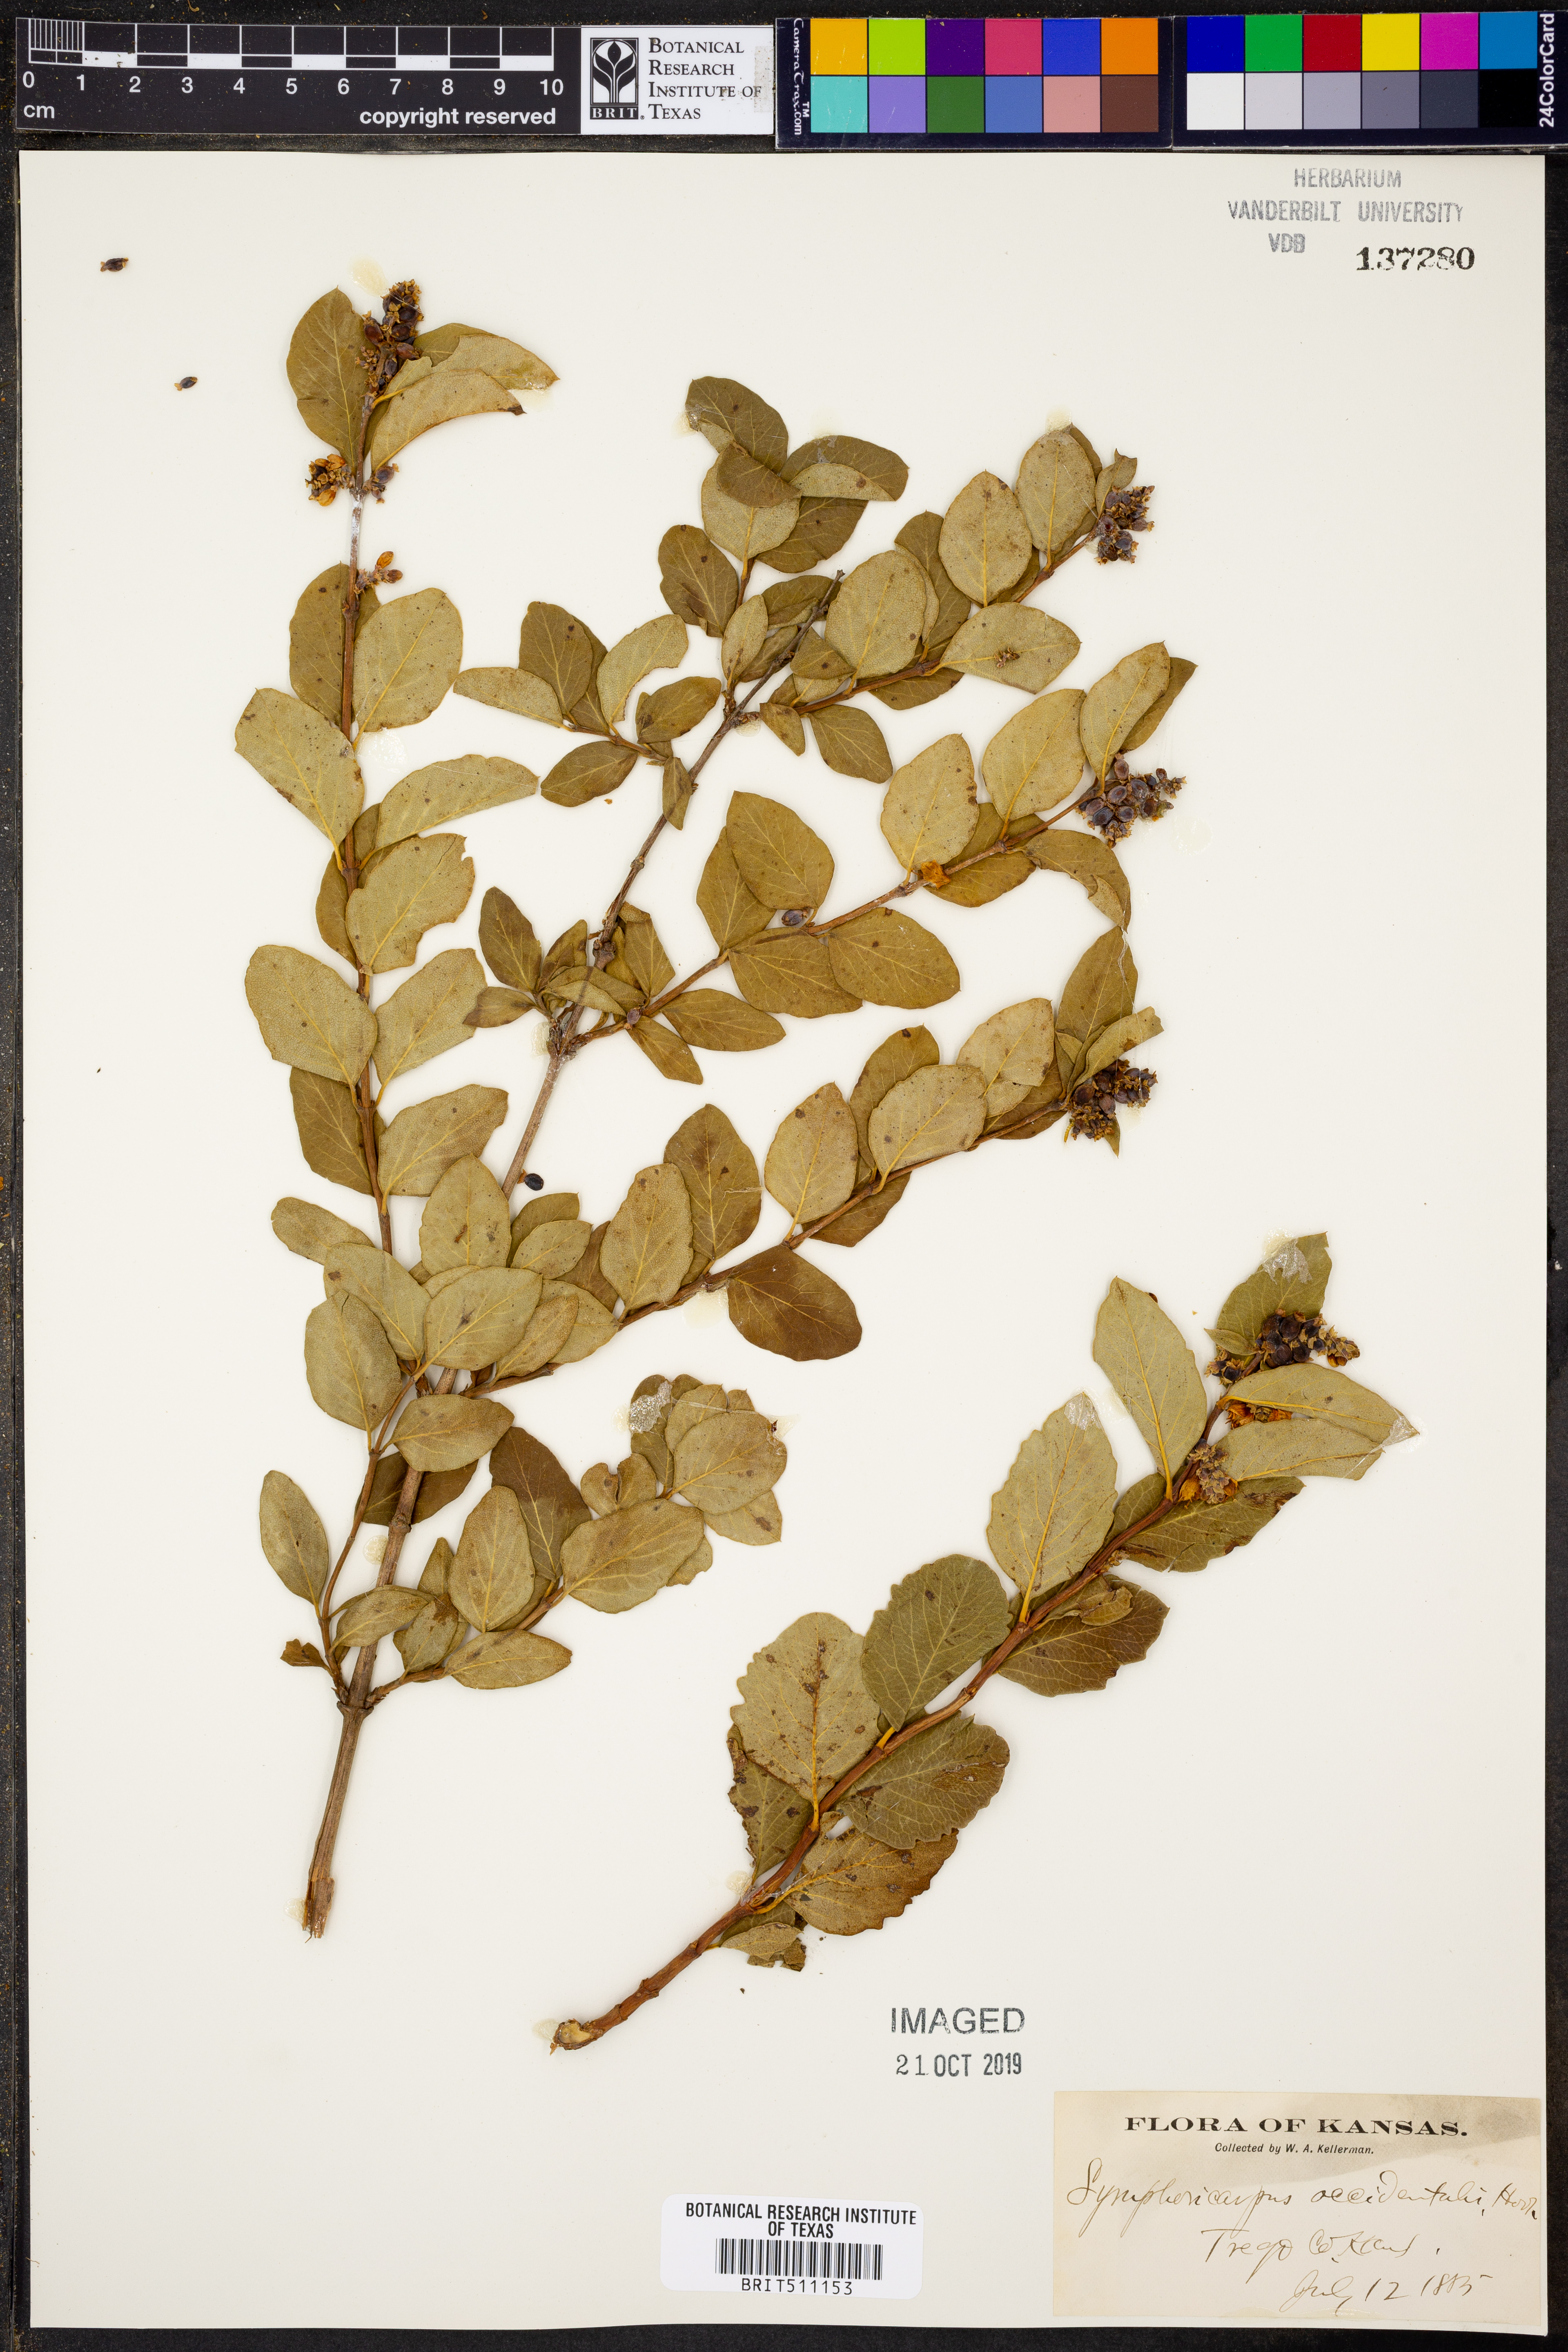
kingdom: Plantae
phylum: Tracheophyta
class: Magnoliopsida
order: Dipsacales
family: Caprifoliaceae
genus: Symphoricarpos
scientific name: Symphoricarpos occidentalis
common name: Wolfberry
